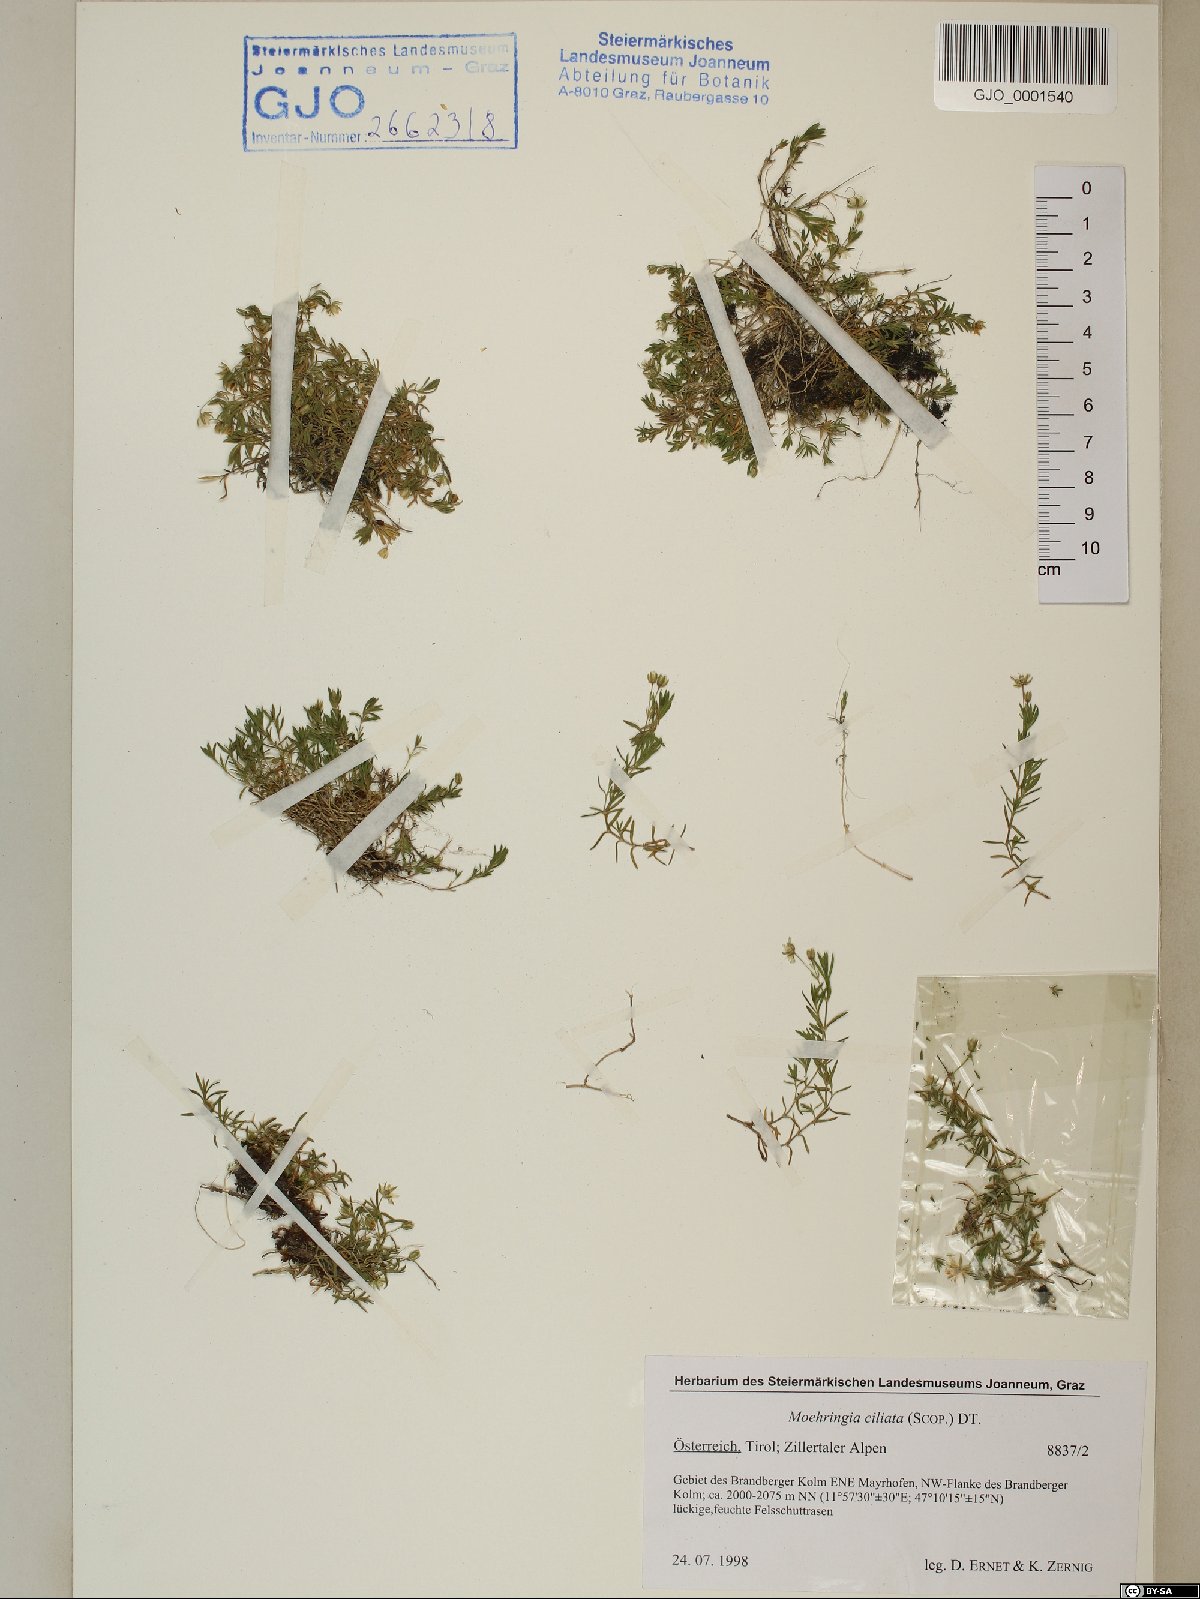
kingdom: Plantae
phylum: Tracheophyta
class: Magnoliopsida
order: Caryophyllales
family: Caryophyllaceae
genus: Moehringia
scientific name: Moehringia ciliata
